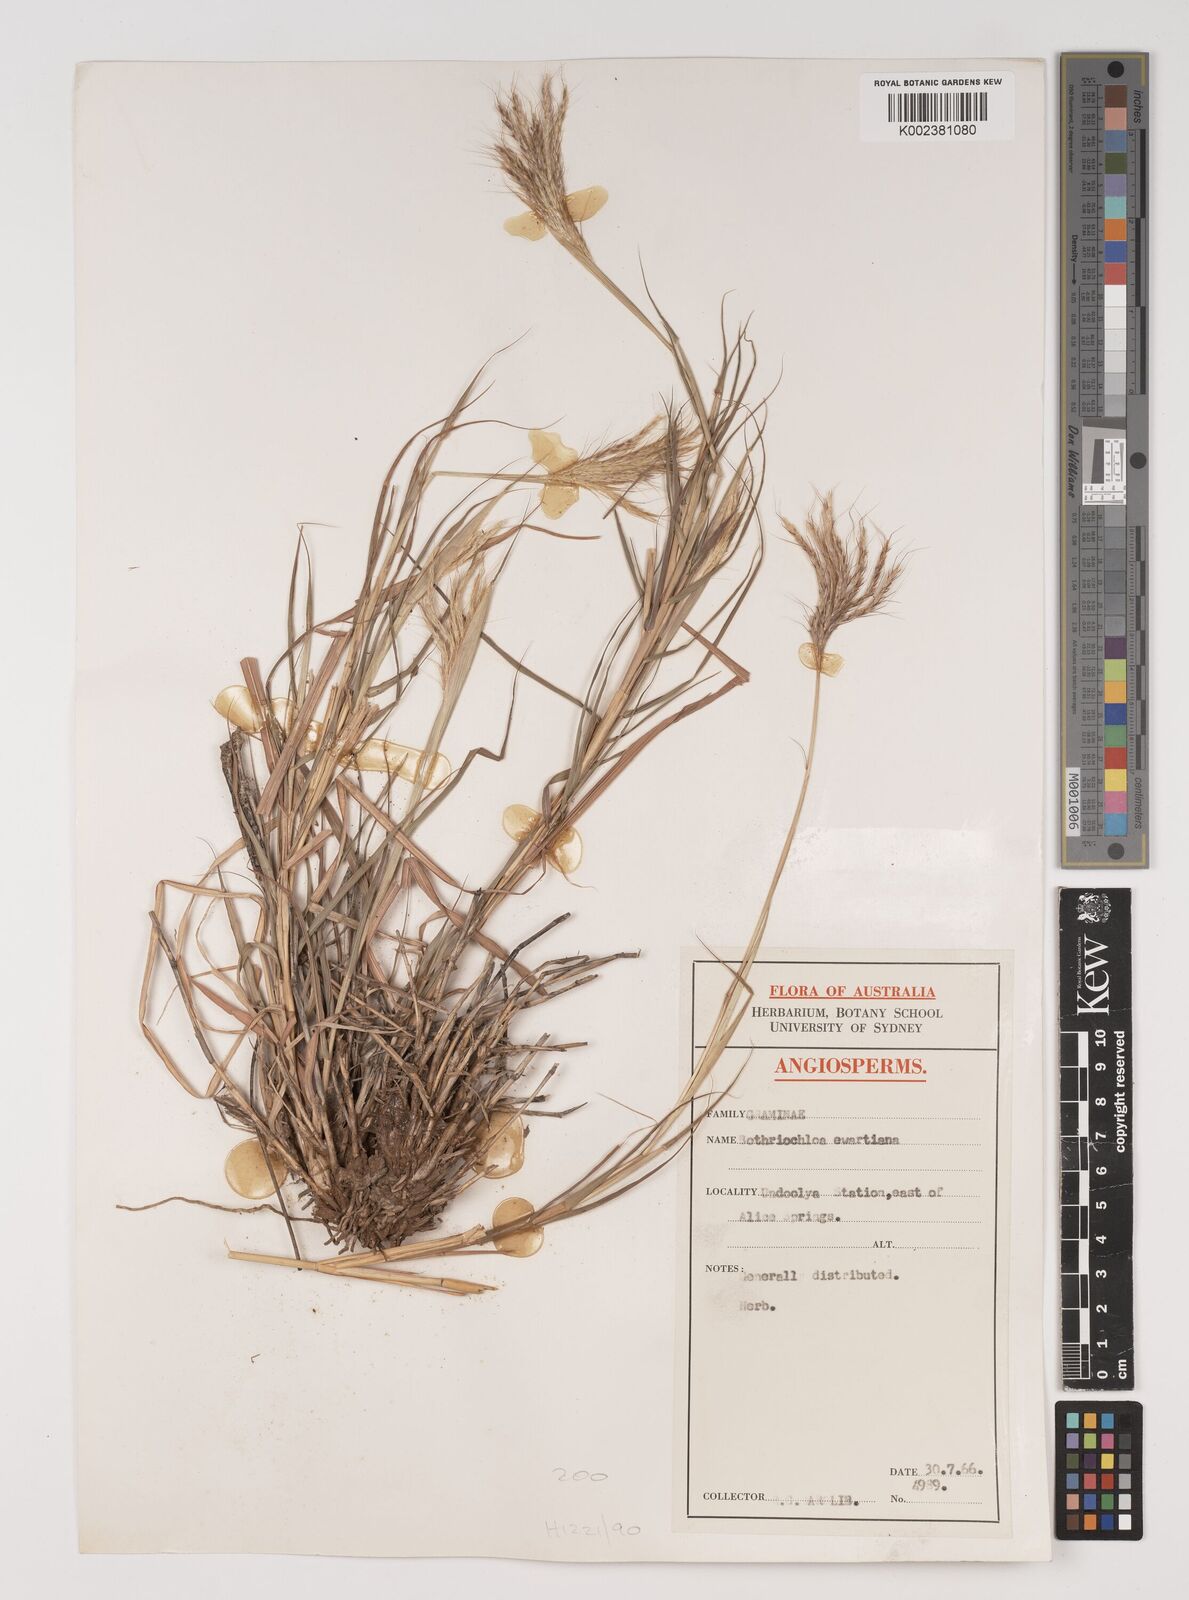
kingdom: Plantae
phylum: Tracheophyta
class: Liliopsida
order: Poales
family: Poaceae
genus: Bothriochloa
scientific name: Bothriochloa ewartiana
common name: Desert-bluegrass
